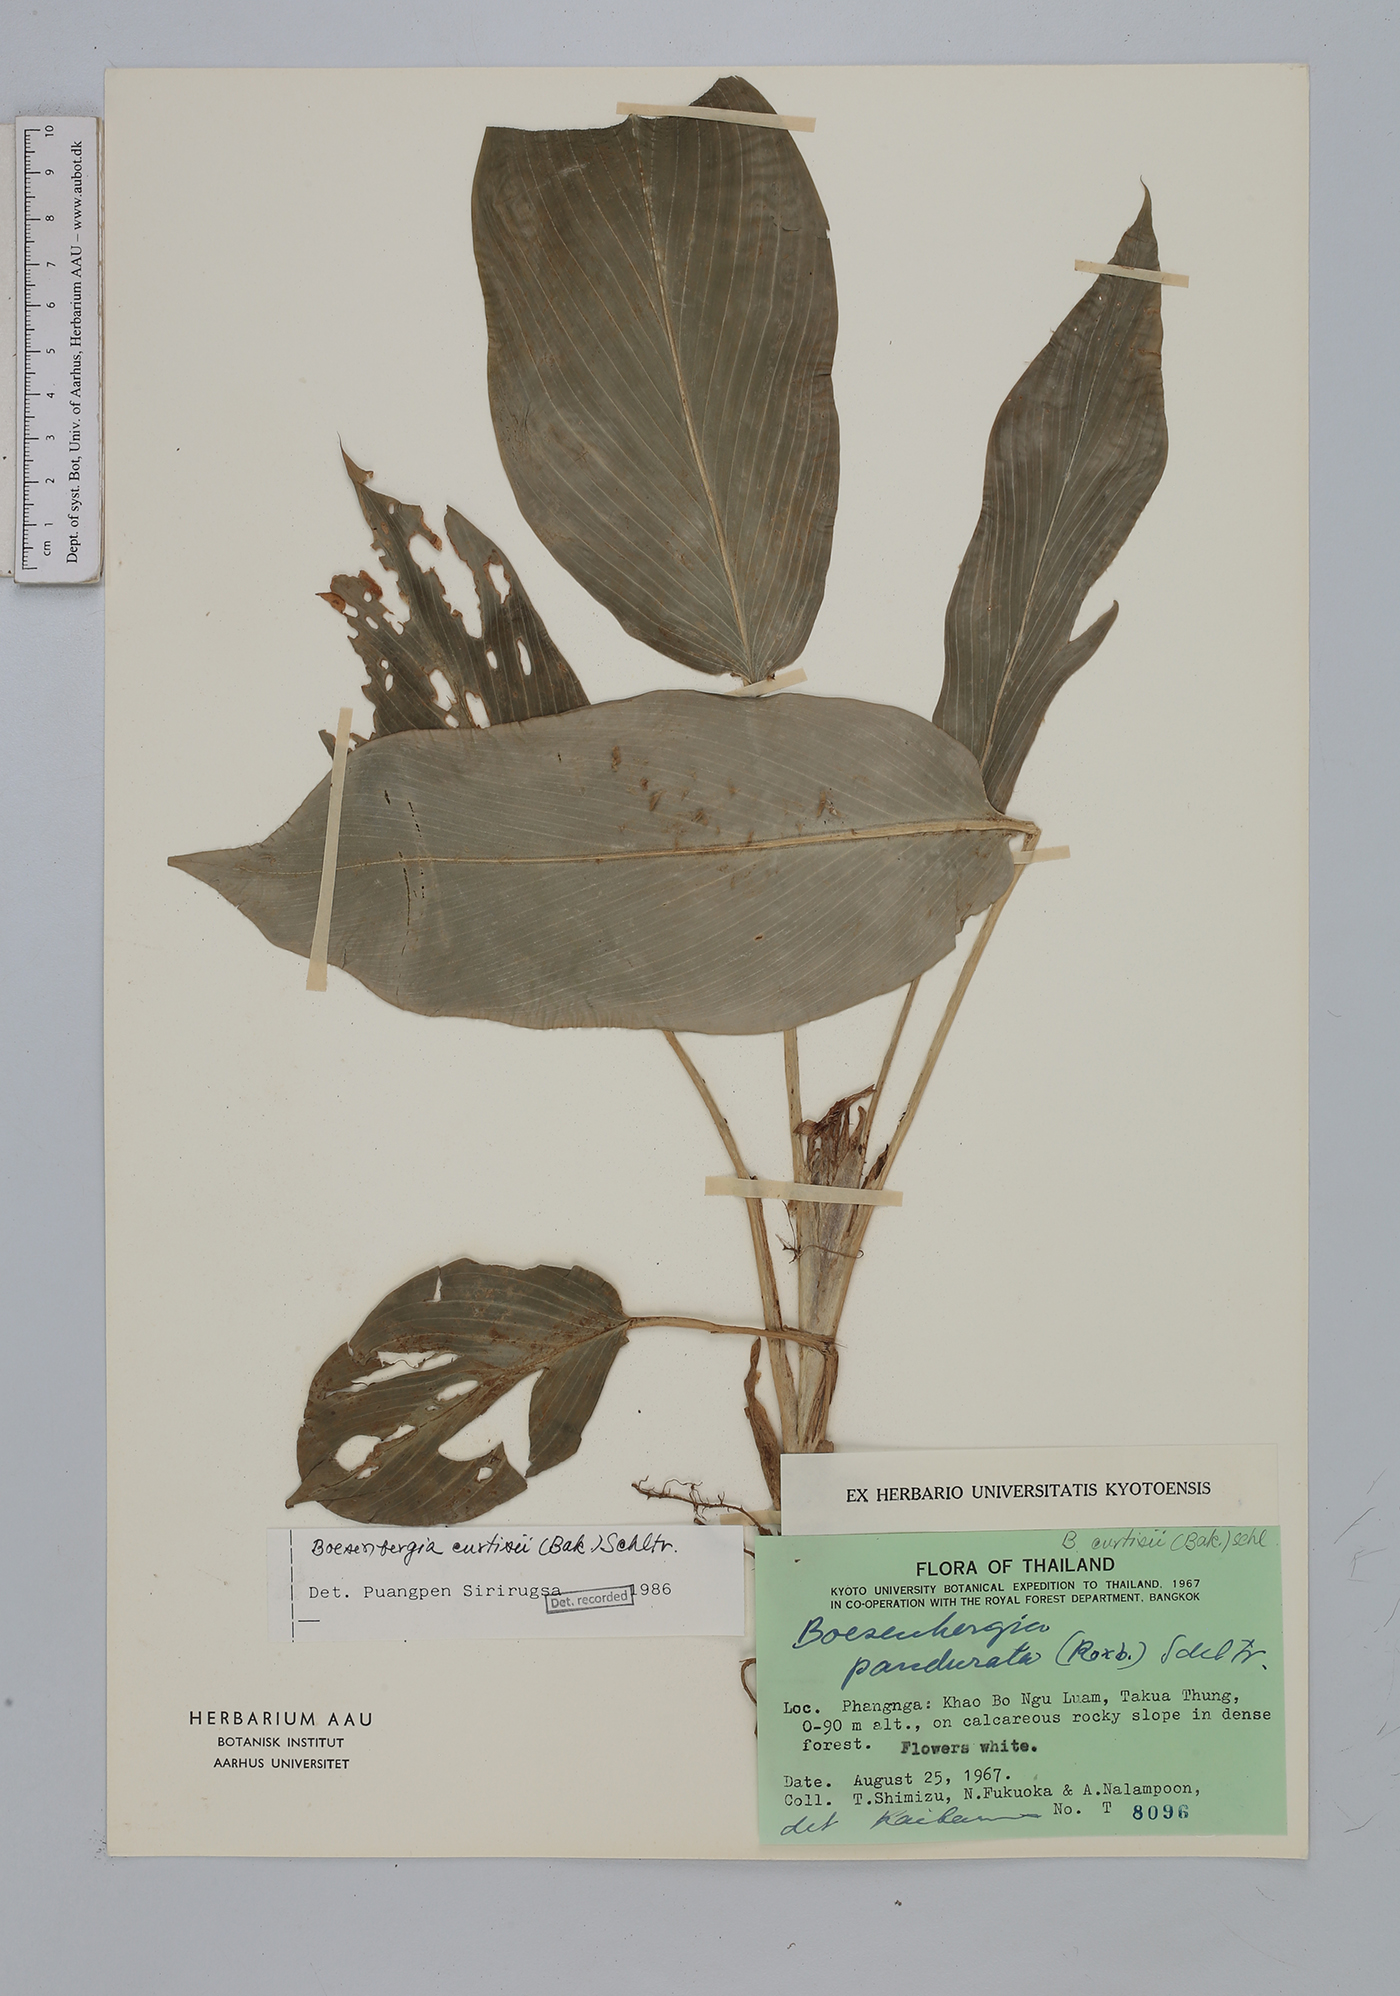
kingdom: Plantae
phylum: Tracheophyta
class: Liliopsida
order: Zingiberales
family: Zingiberaceae
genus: Boesenbergia
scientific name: Boesenbergia curtisii
